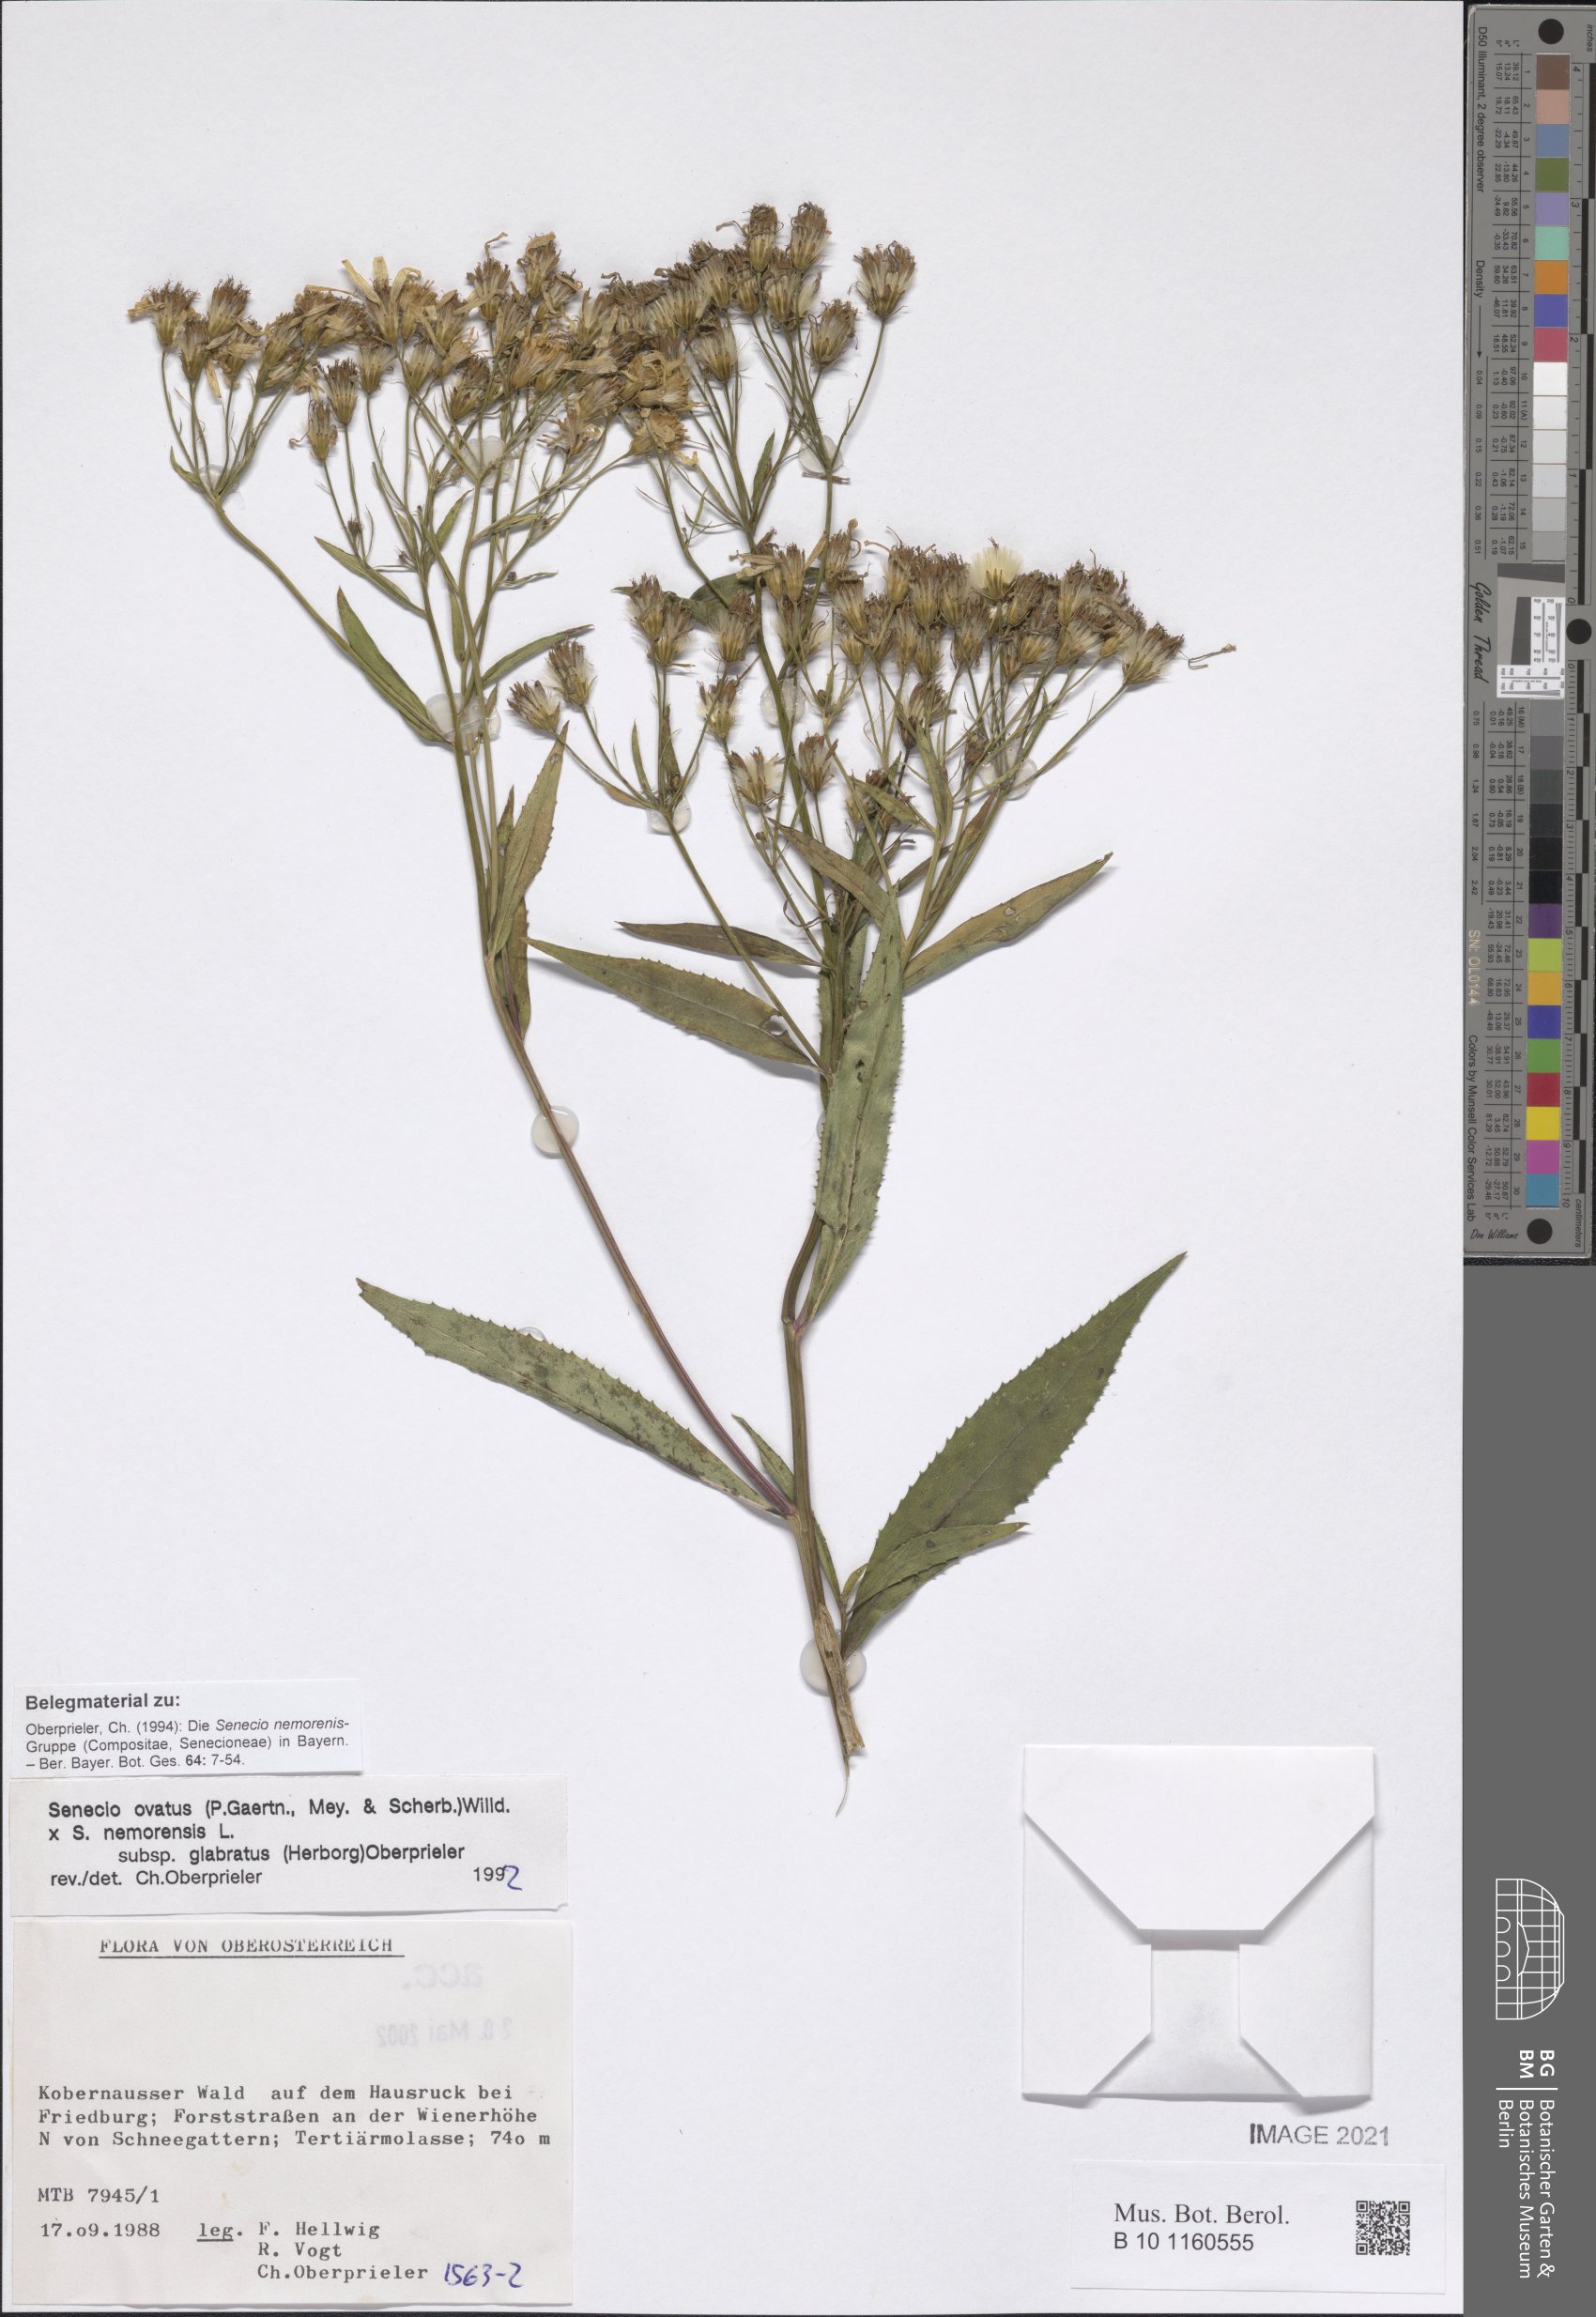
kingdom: Plantae
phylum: Tracheophyta
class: Magnoliopsida
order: Asterales
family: Asteraceae
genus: Senecio
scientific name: Senecio ovatus
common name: Wood ragwort
